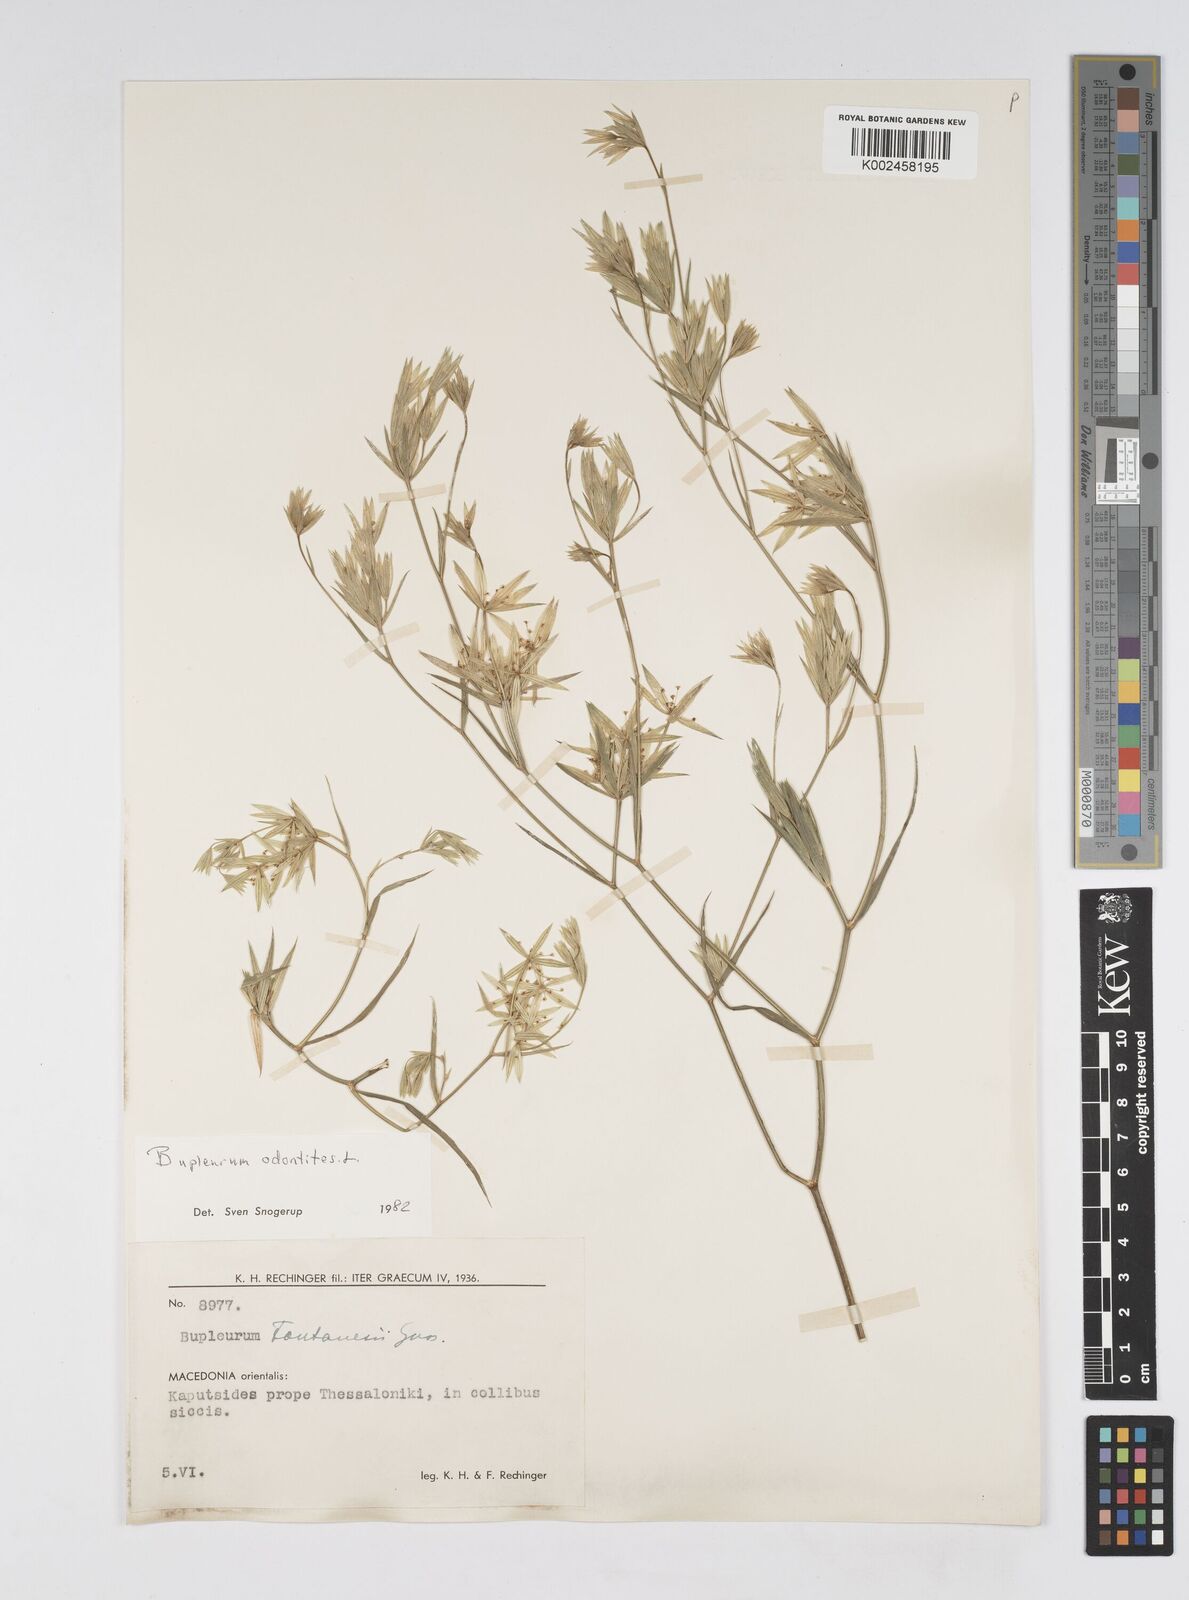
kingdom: Plantae
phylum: Tracheophyta
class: Magnoliopsida
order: Apiales
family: Apiaceae
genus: Bupleurum
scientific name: Bupleurum odontites
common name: Narrowleaf thorow wax
